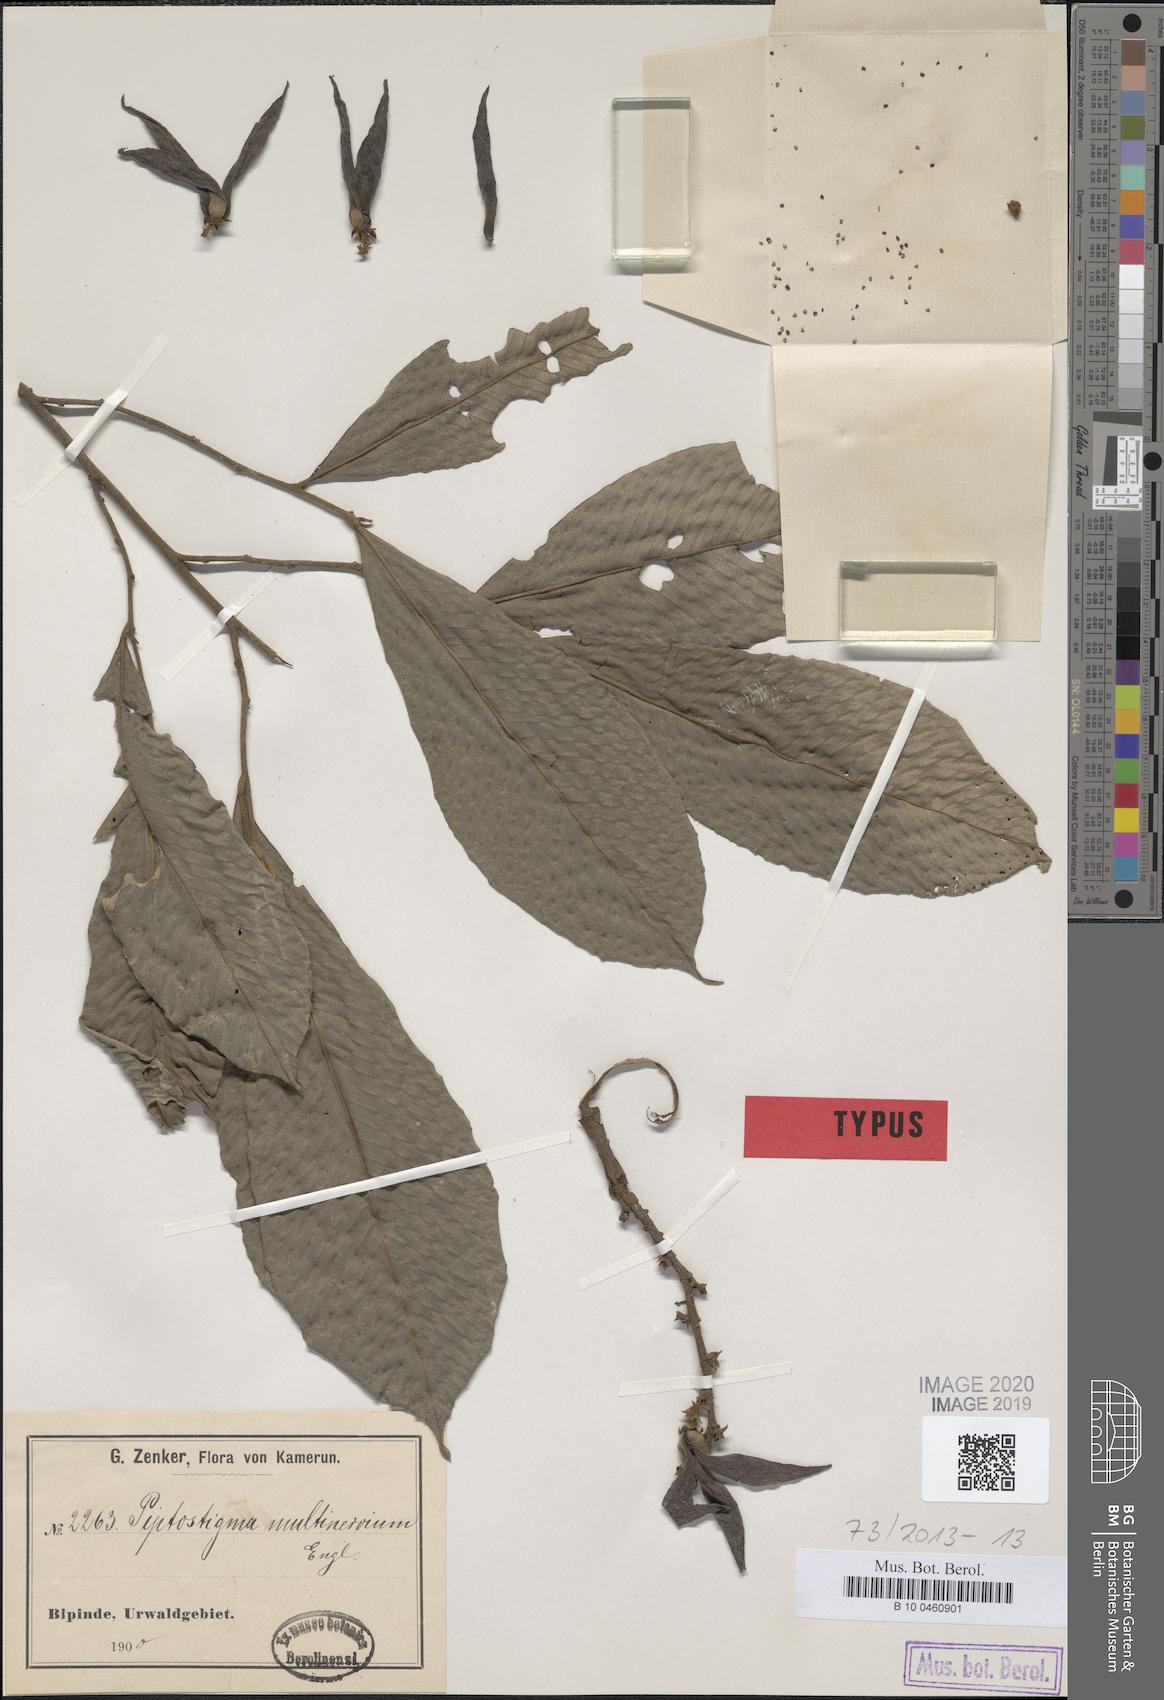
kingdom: Plantae
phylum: Tracheophyta
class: Magnoliopsida
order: Magnoliales
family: Annonaceae
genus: Piptostigma
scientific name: Piptostigma multinervium
